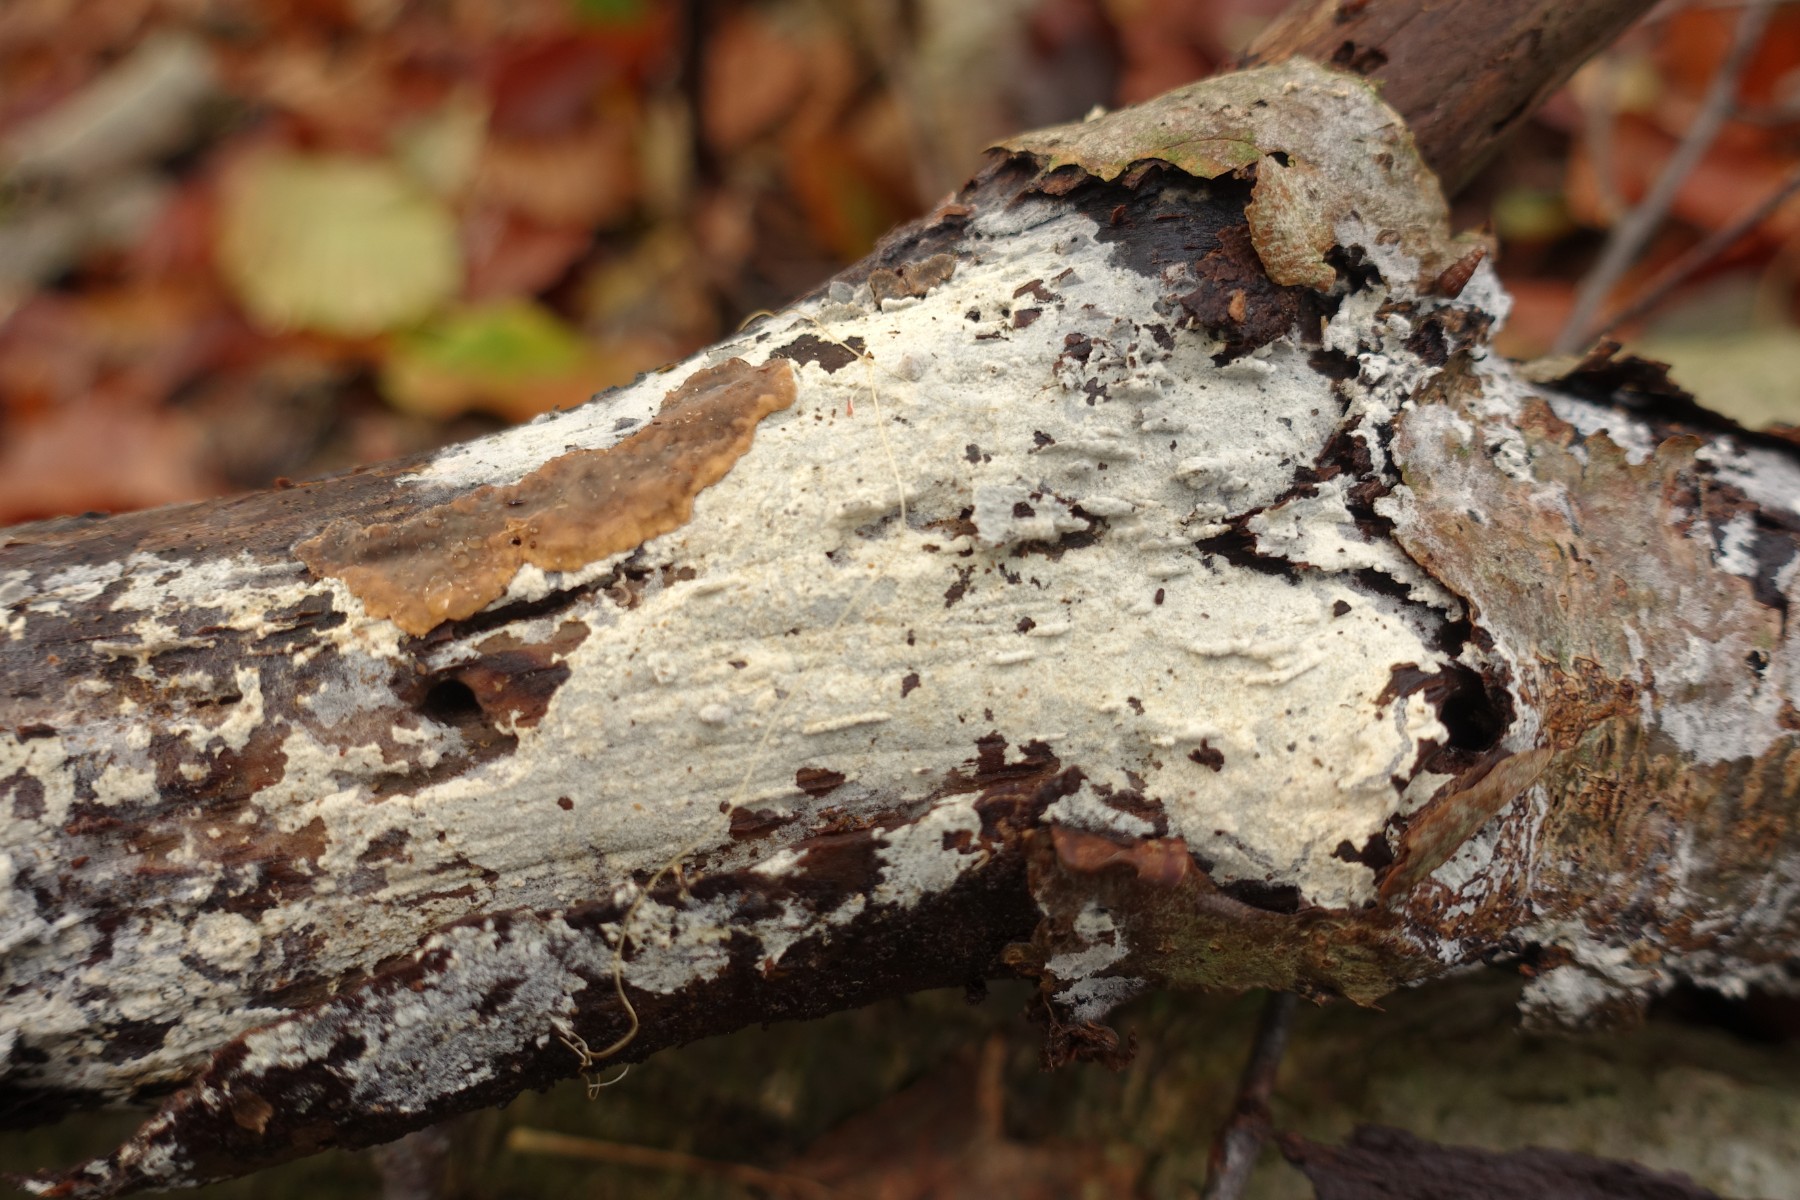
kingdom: Fungi
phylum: Basidiomycota
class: Agaricomycetes
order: Cantharellales
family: Botryobasidiaceae
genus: Botryobasidium
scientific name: Botryobasidium subcoronatum
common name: almindelig spindhinde
